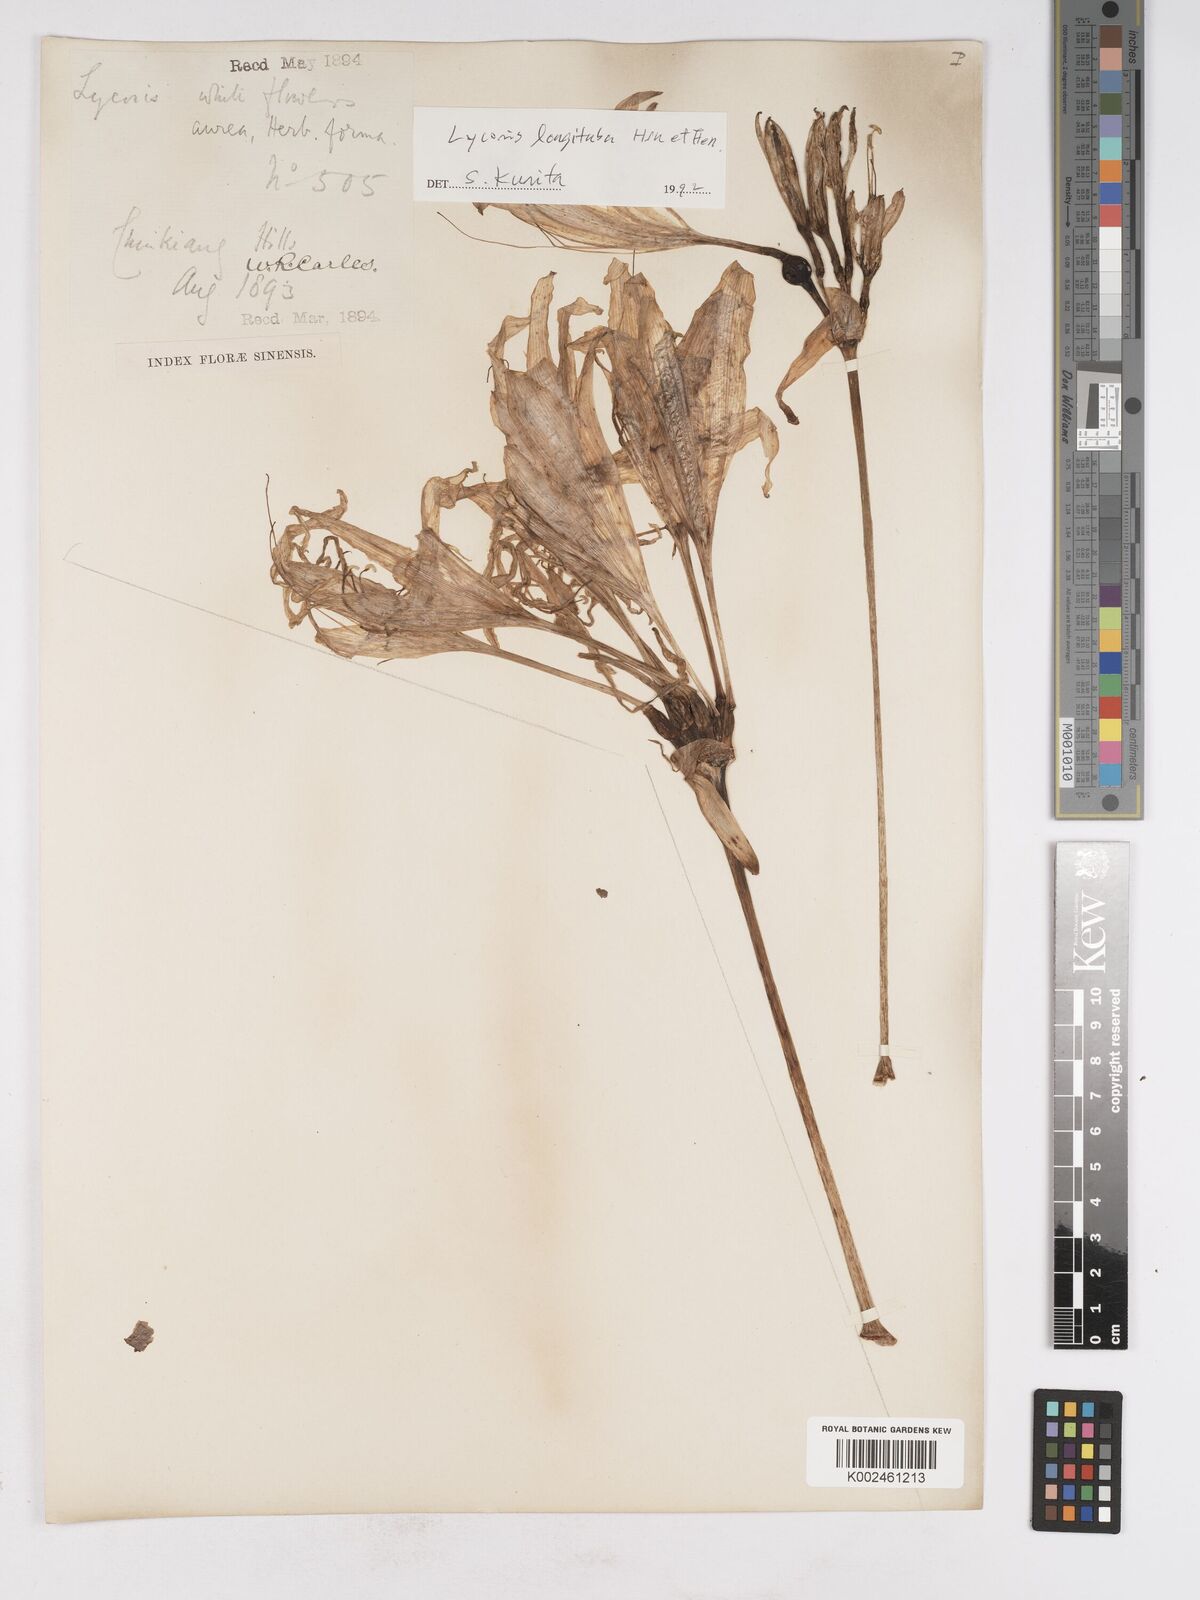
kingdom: Plantae
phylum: Tracheophyta
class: Liliopsida
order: Asparagales
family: Amaryllidaceae
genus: Lycoris
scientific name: Lycoris
